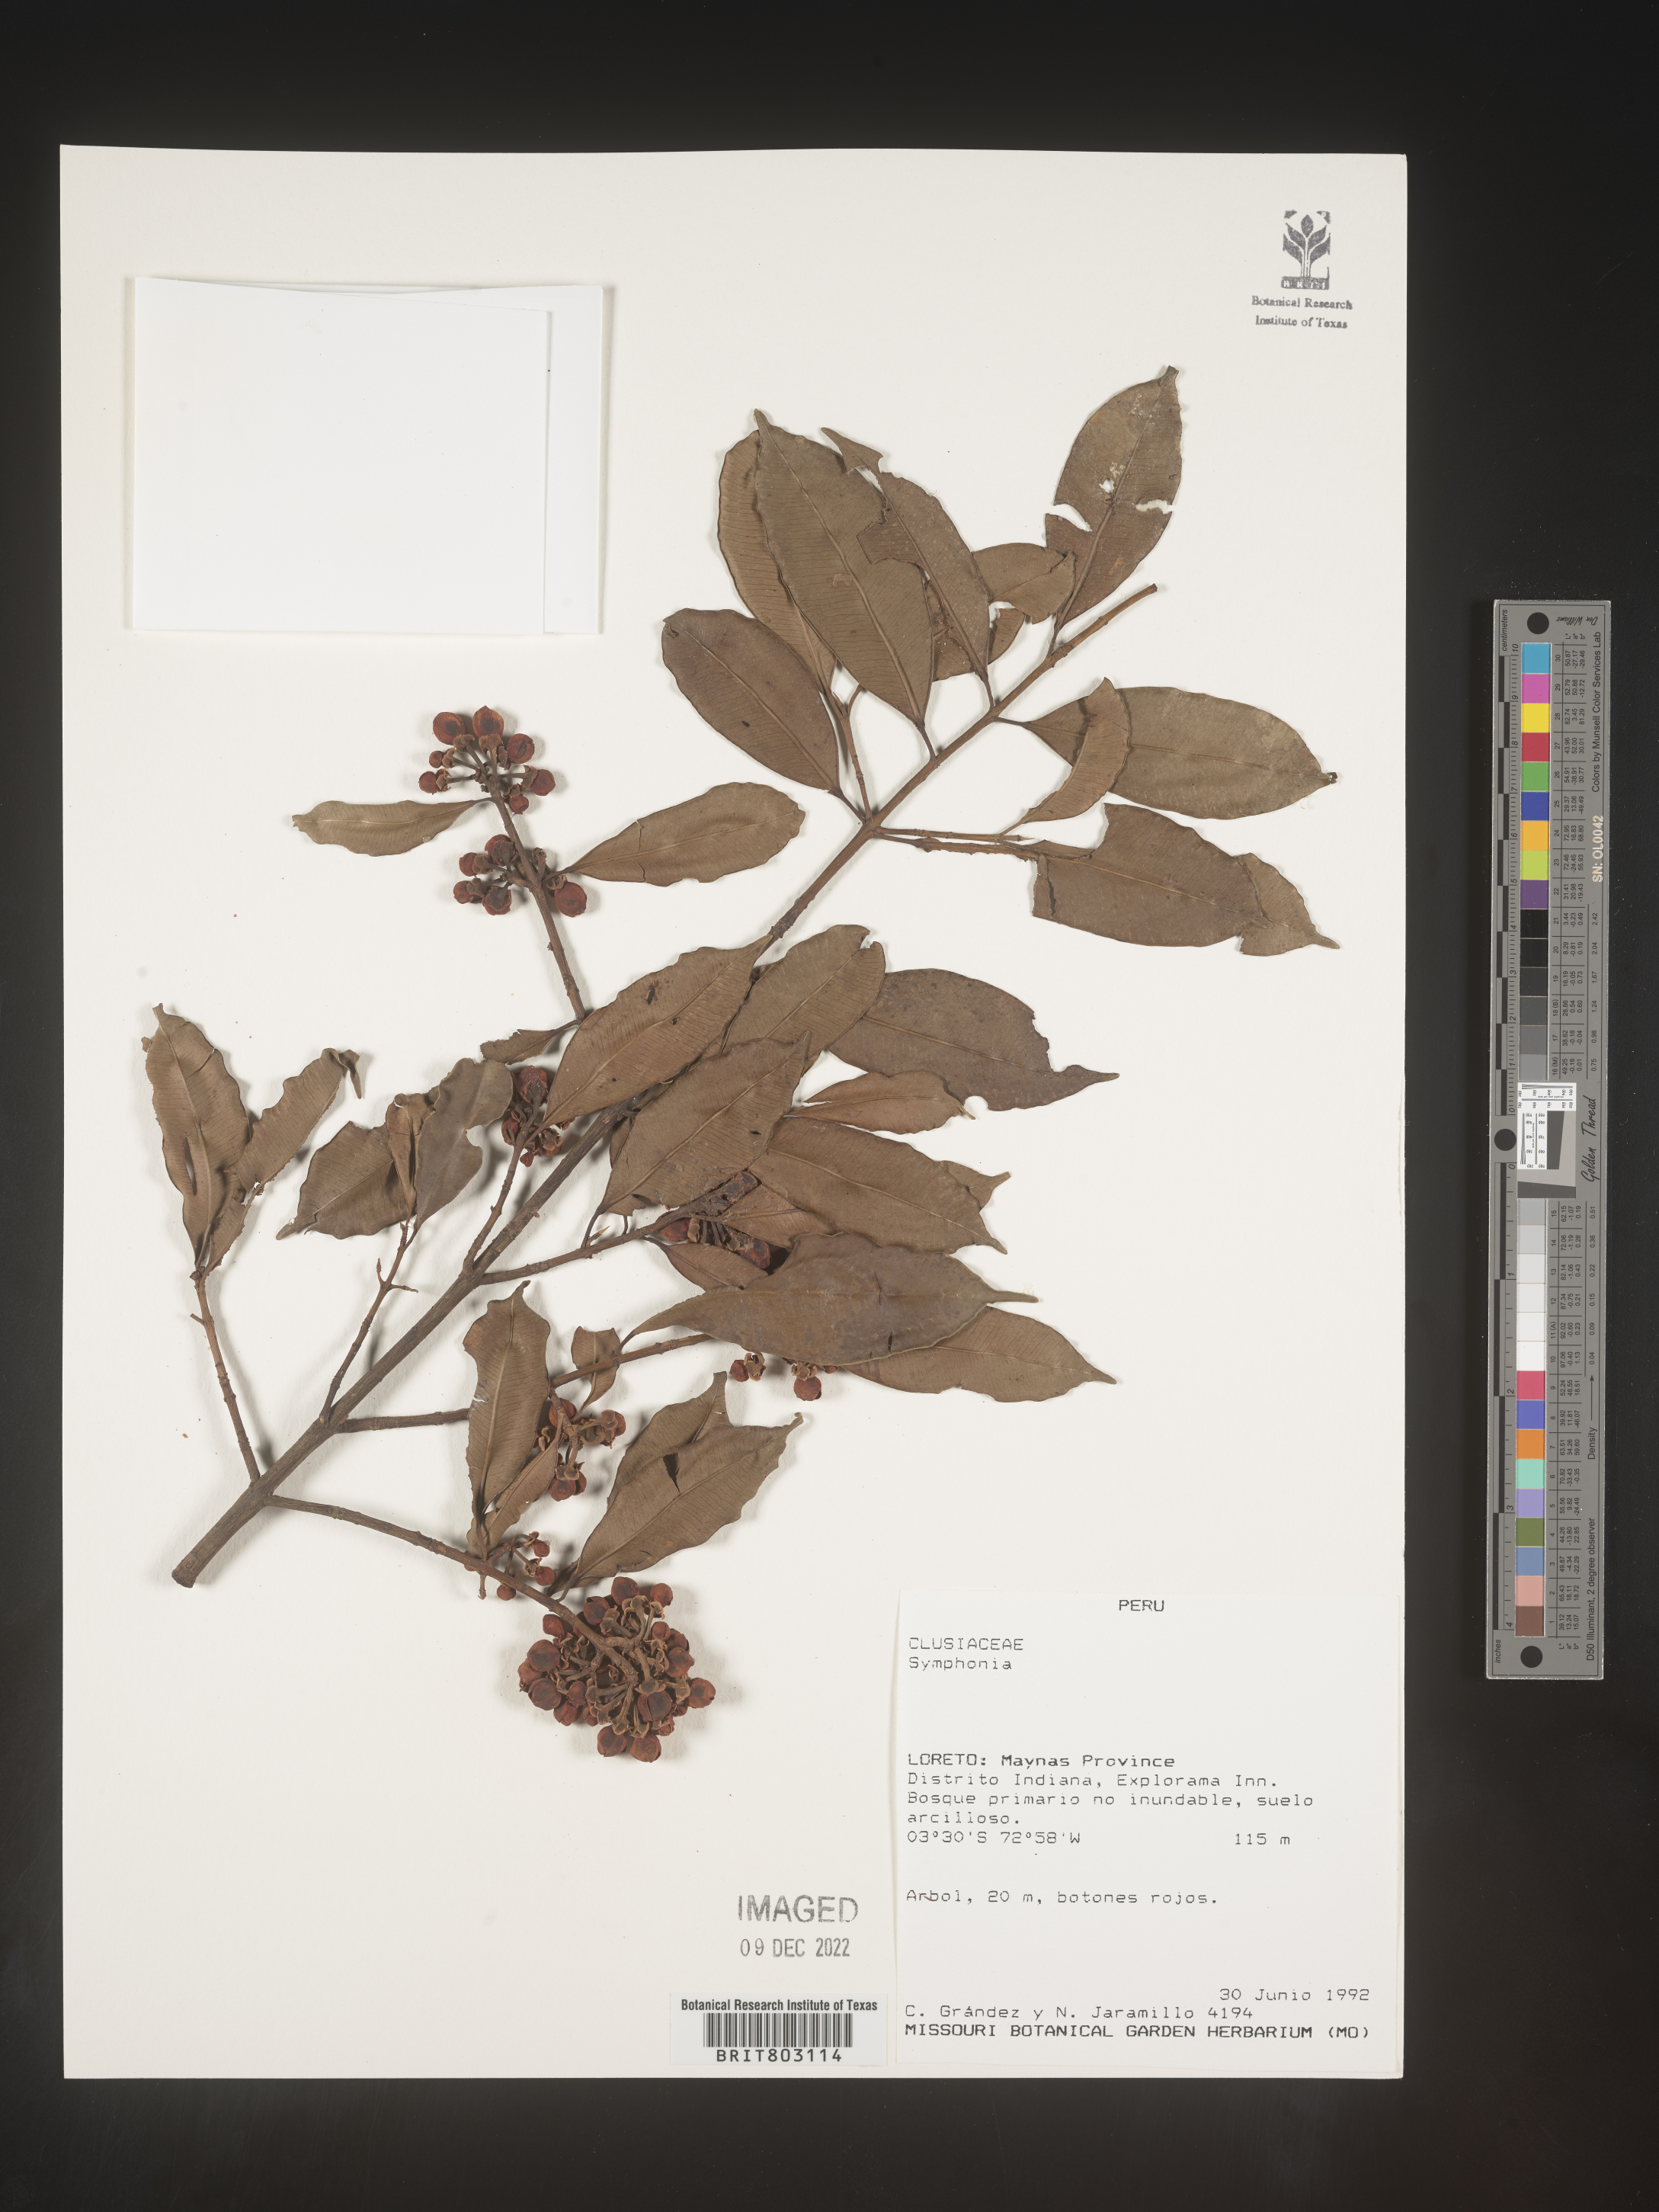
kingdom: Plantae
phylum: Tracheophyta
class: Magnoliopsida
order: Malpighiales
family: Clusiaceae
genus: Symphonia
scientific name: Symphonia
